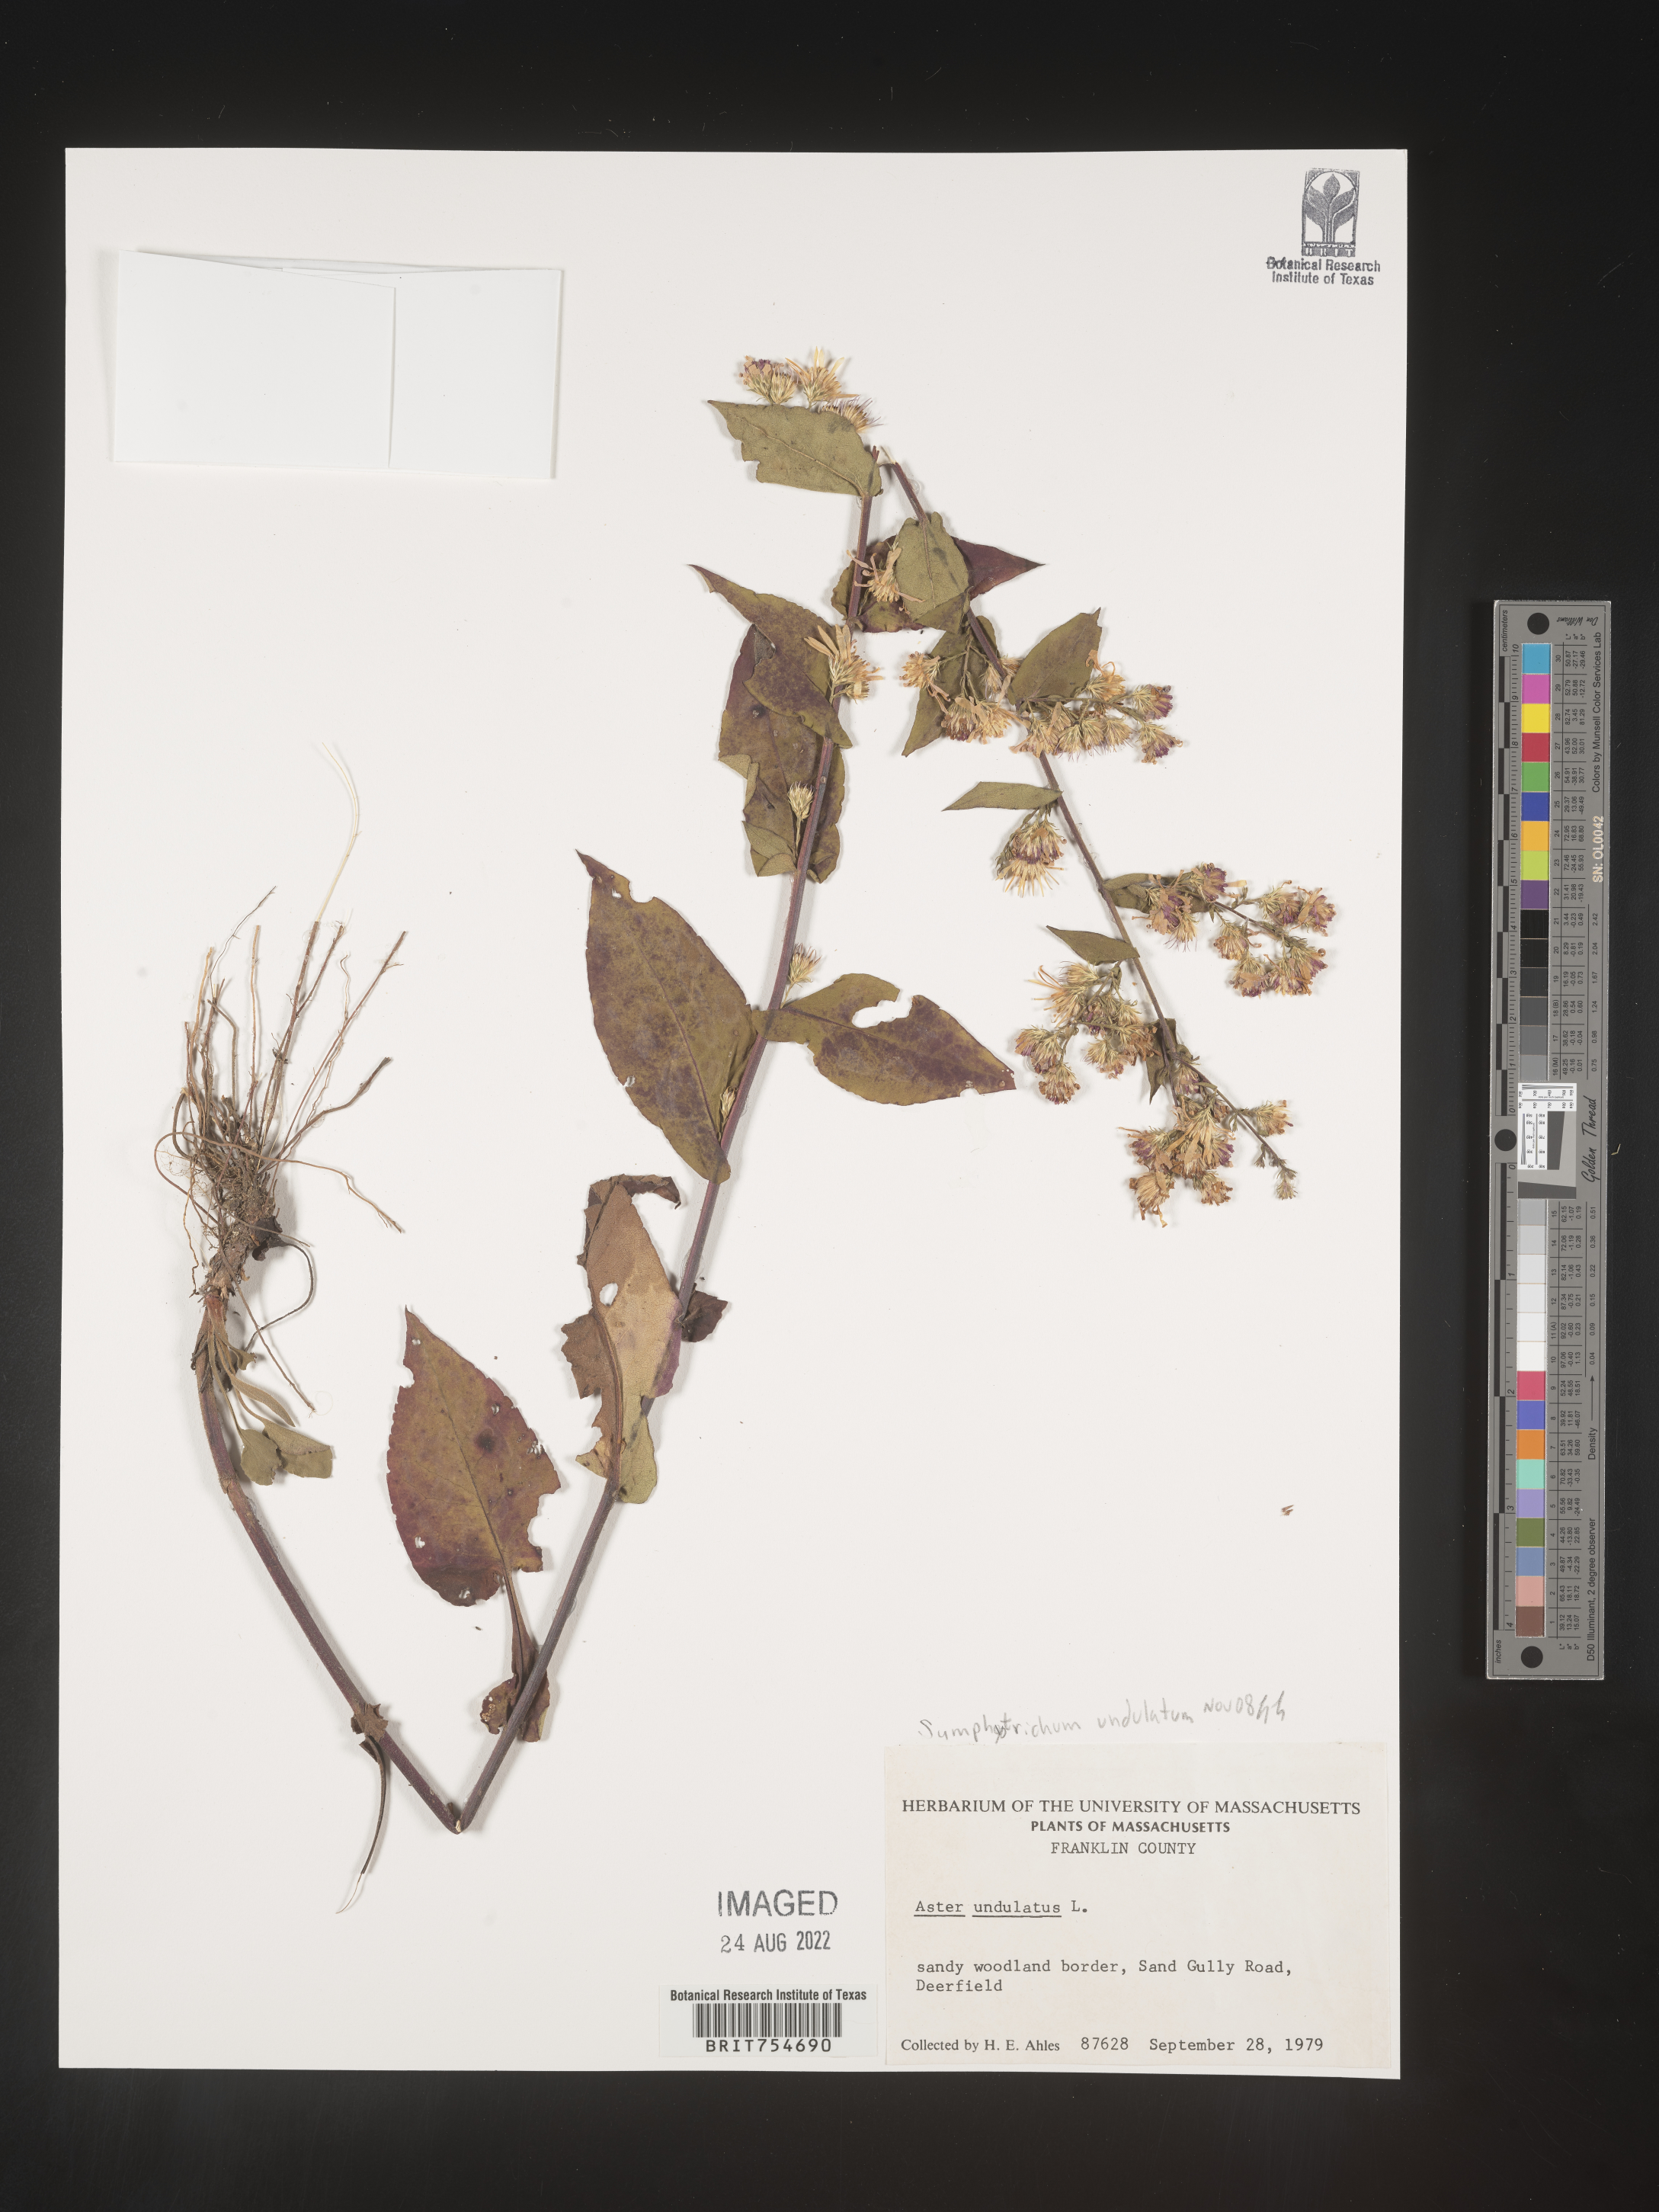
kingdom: Plantae
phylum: Tracheophyta
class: Magnoliopsida
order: Asterales
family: Asteraceae
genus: Symphyotrichum
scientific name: Symphyotrichum undulatum
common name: Clasping heart-leaf aster
